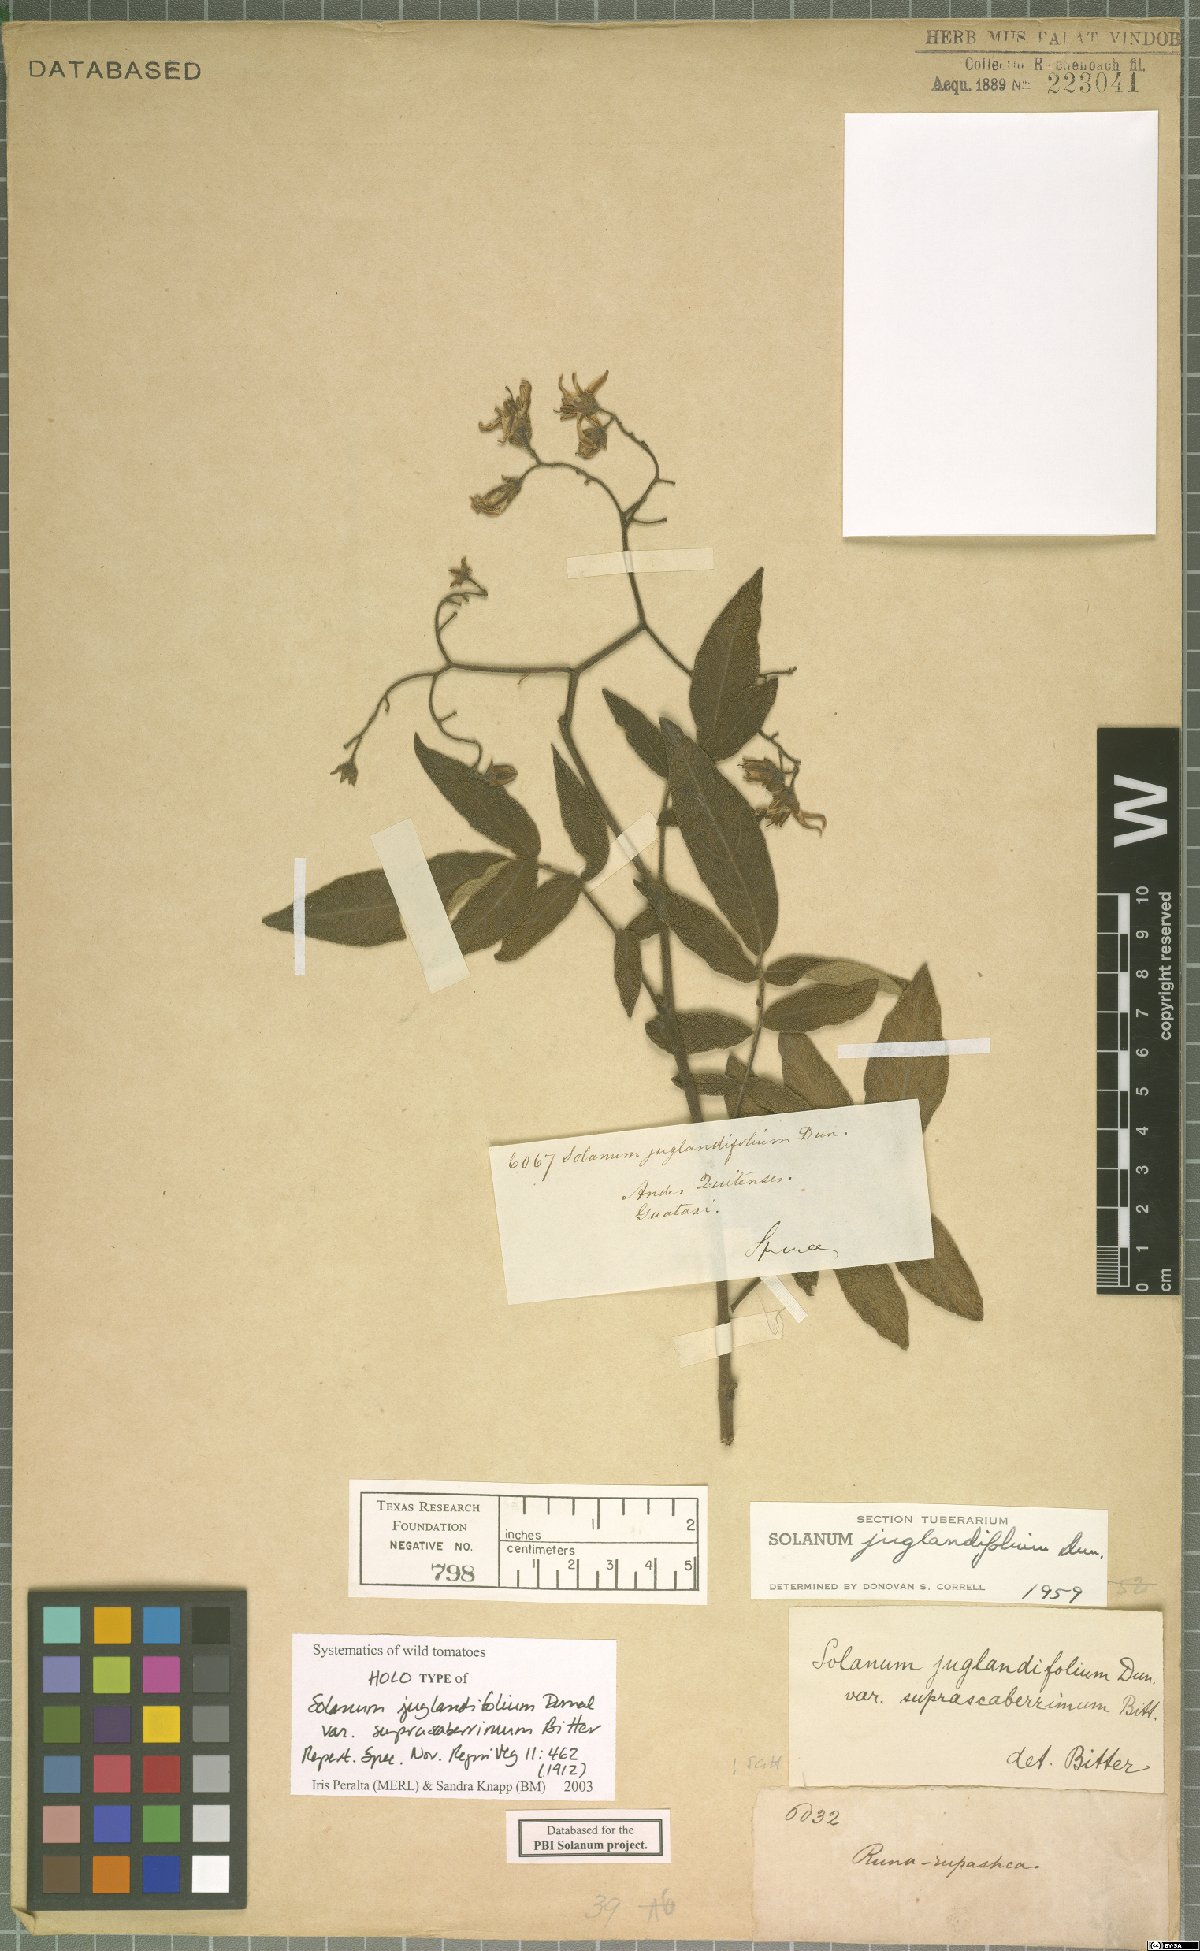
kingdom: Plantae
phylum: Tracheophyta
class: Magnoliopsida
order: Solanales
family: Solanaceae
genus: Solanum
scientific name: Solanum juglandifolium
